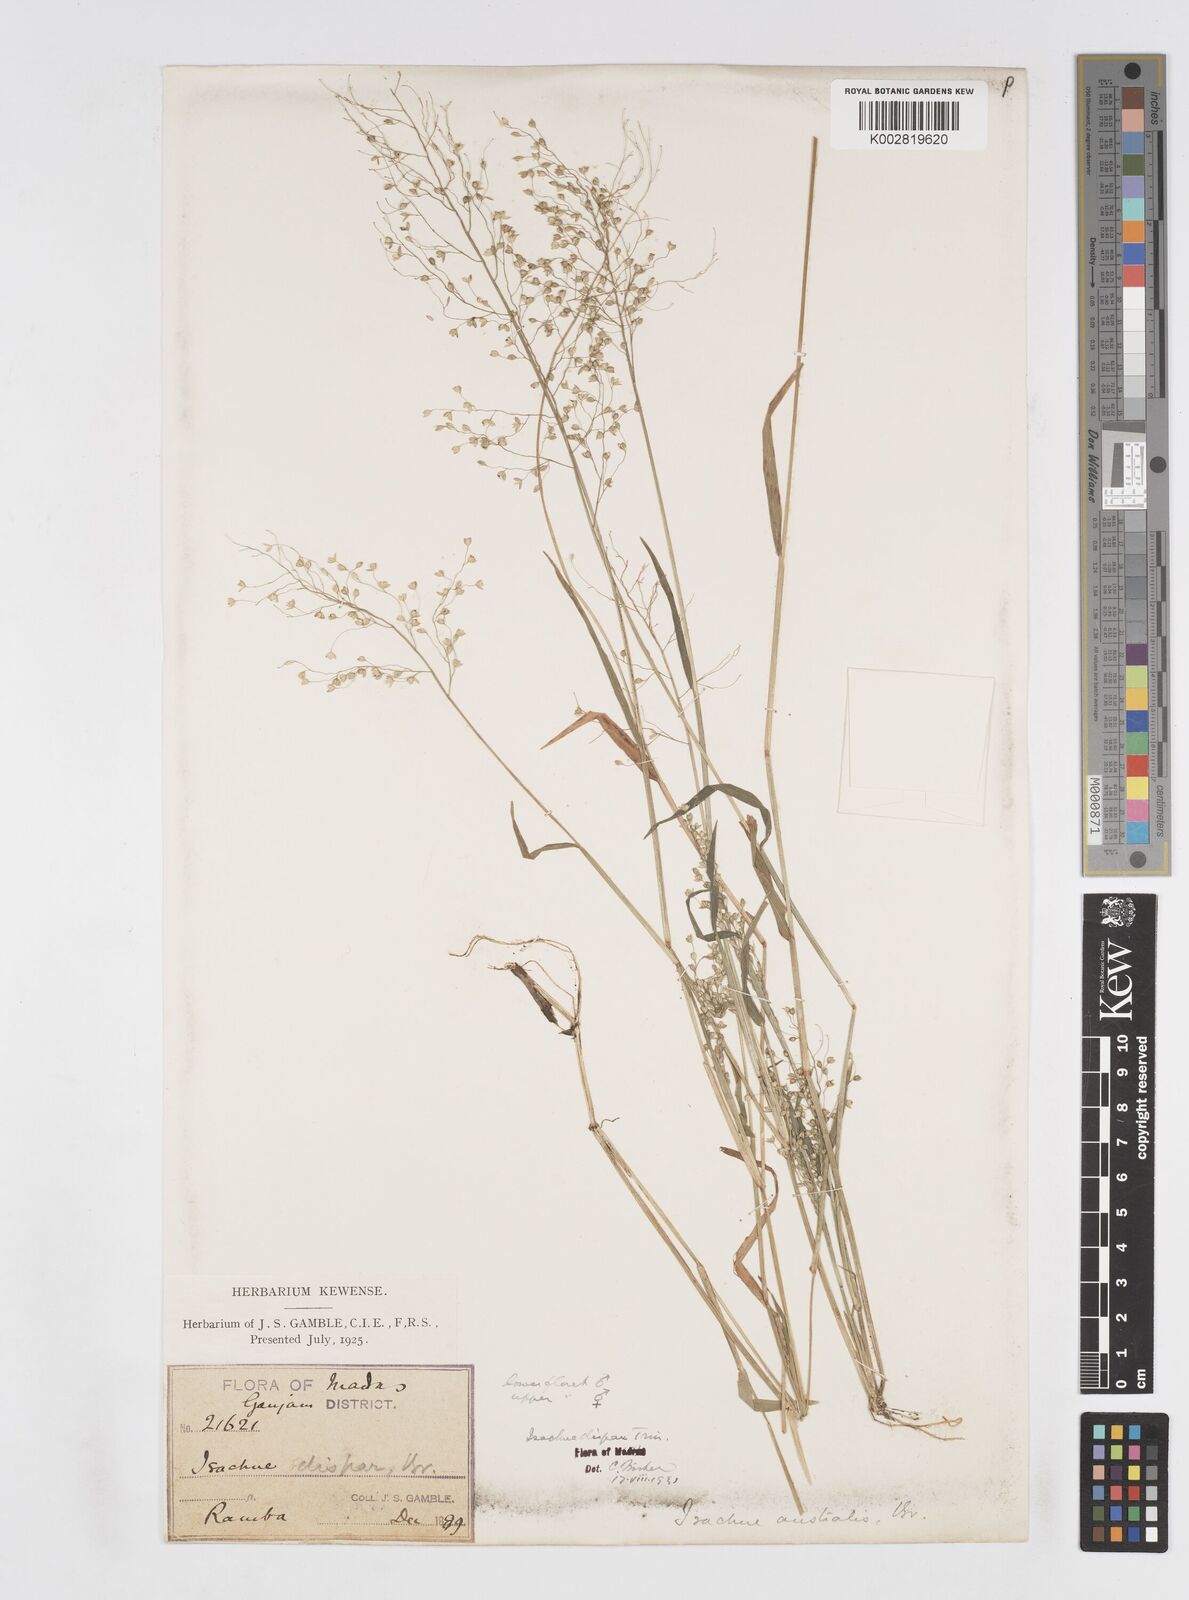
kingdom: Plantae
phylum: Tracheophyta
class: Liliopsida
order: Poales
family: Poaceae
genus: Isachne
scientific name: Isachne globosa
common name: Swamp millet
